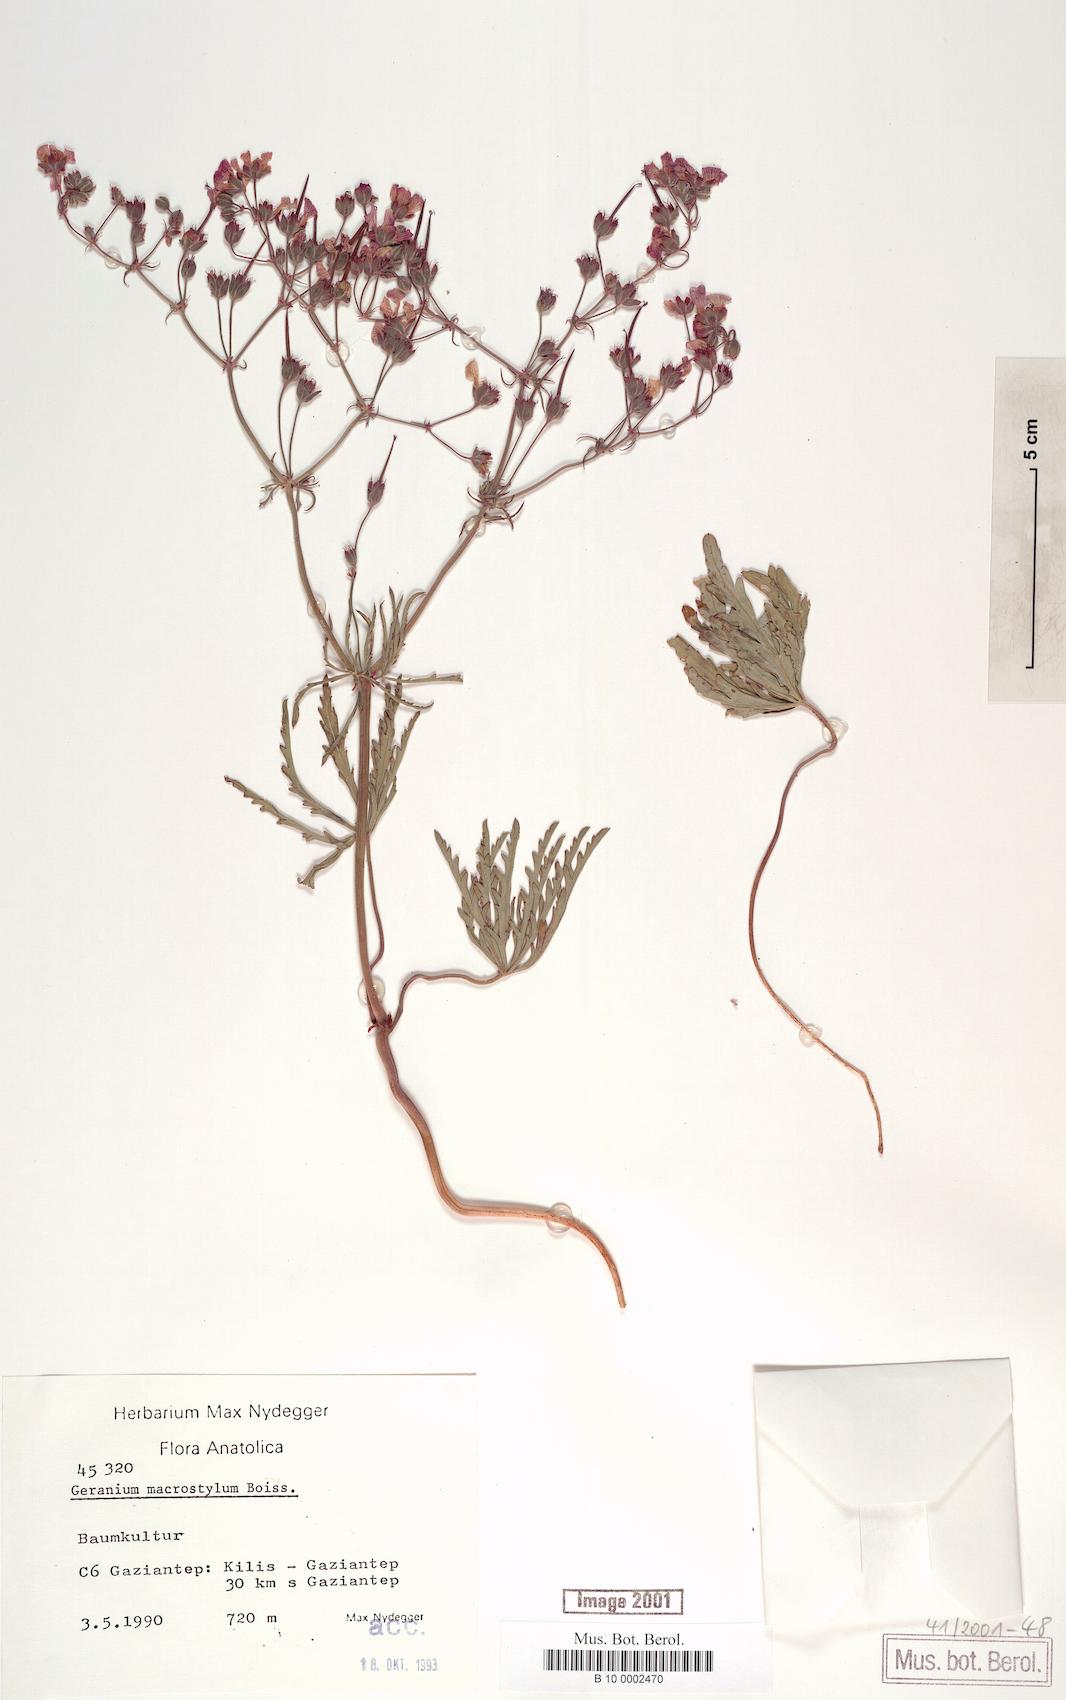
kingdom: Plantae
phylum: Tracheophyta
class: Magnoliopsida
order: Geraniales
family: Geraniaceae
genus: Geranium
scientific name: Geranium macrostylum
